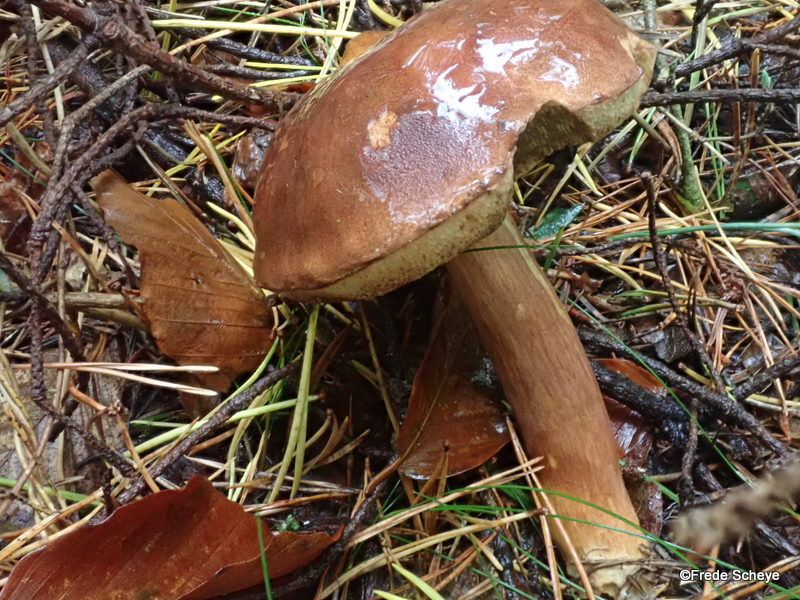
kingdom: Fungi
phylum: Basidiomycota
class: Agaricomycetes
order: Boletales
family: Boletaceae
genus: Imleria
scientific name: Imleria badia
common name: brunstokket rørhat
